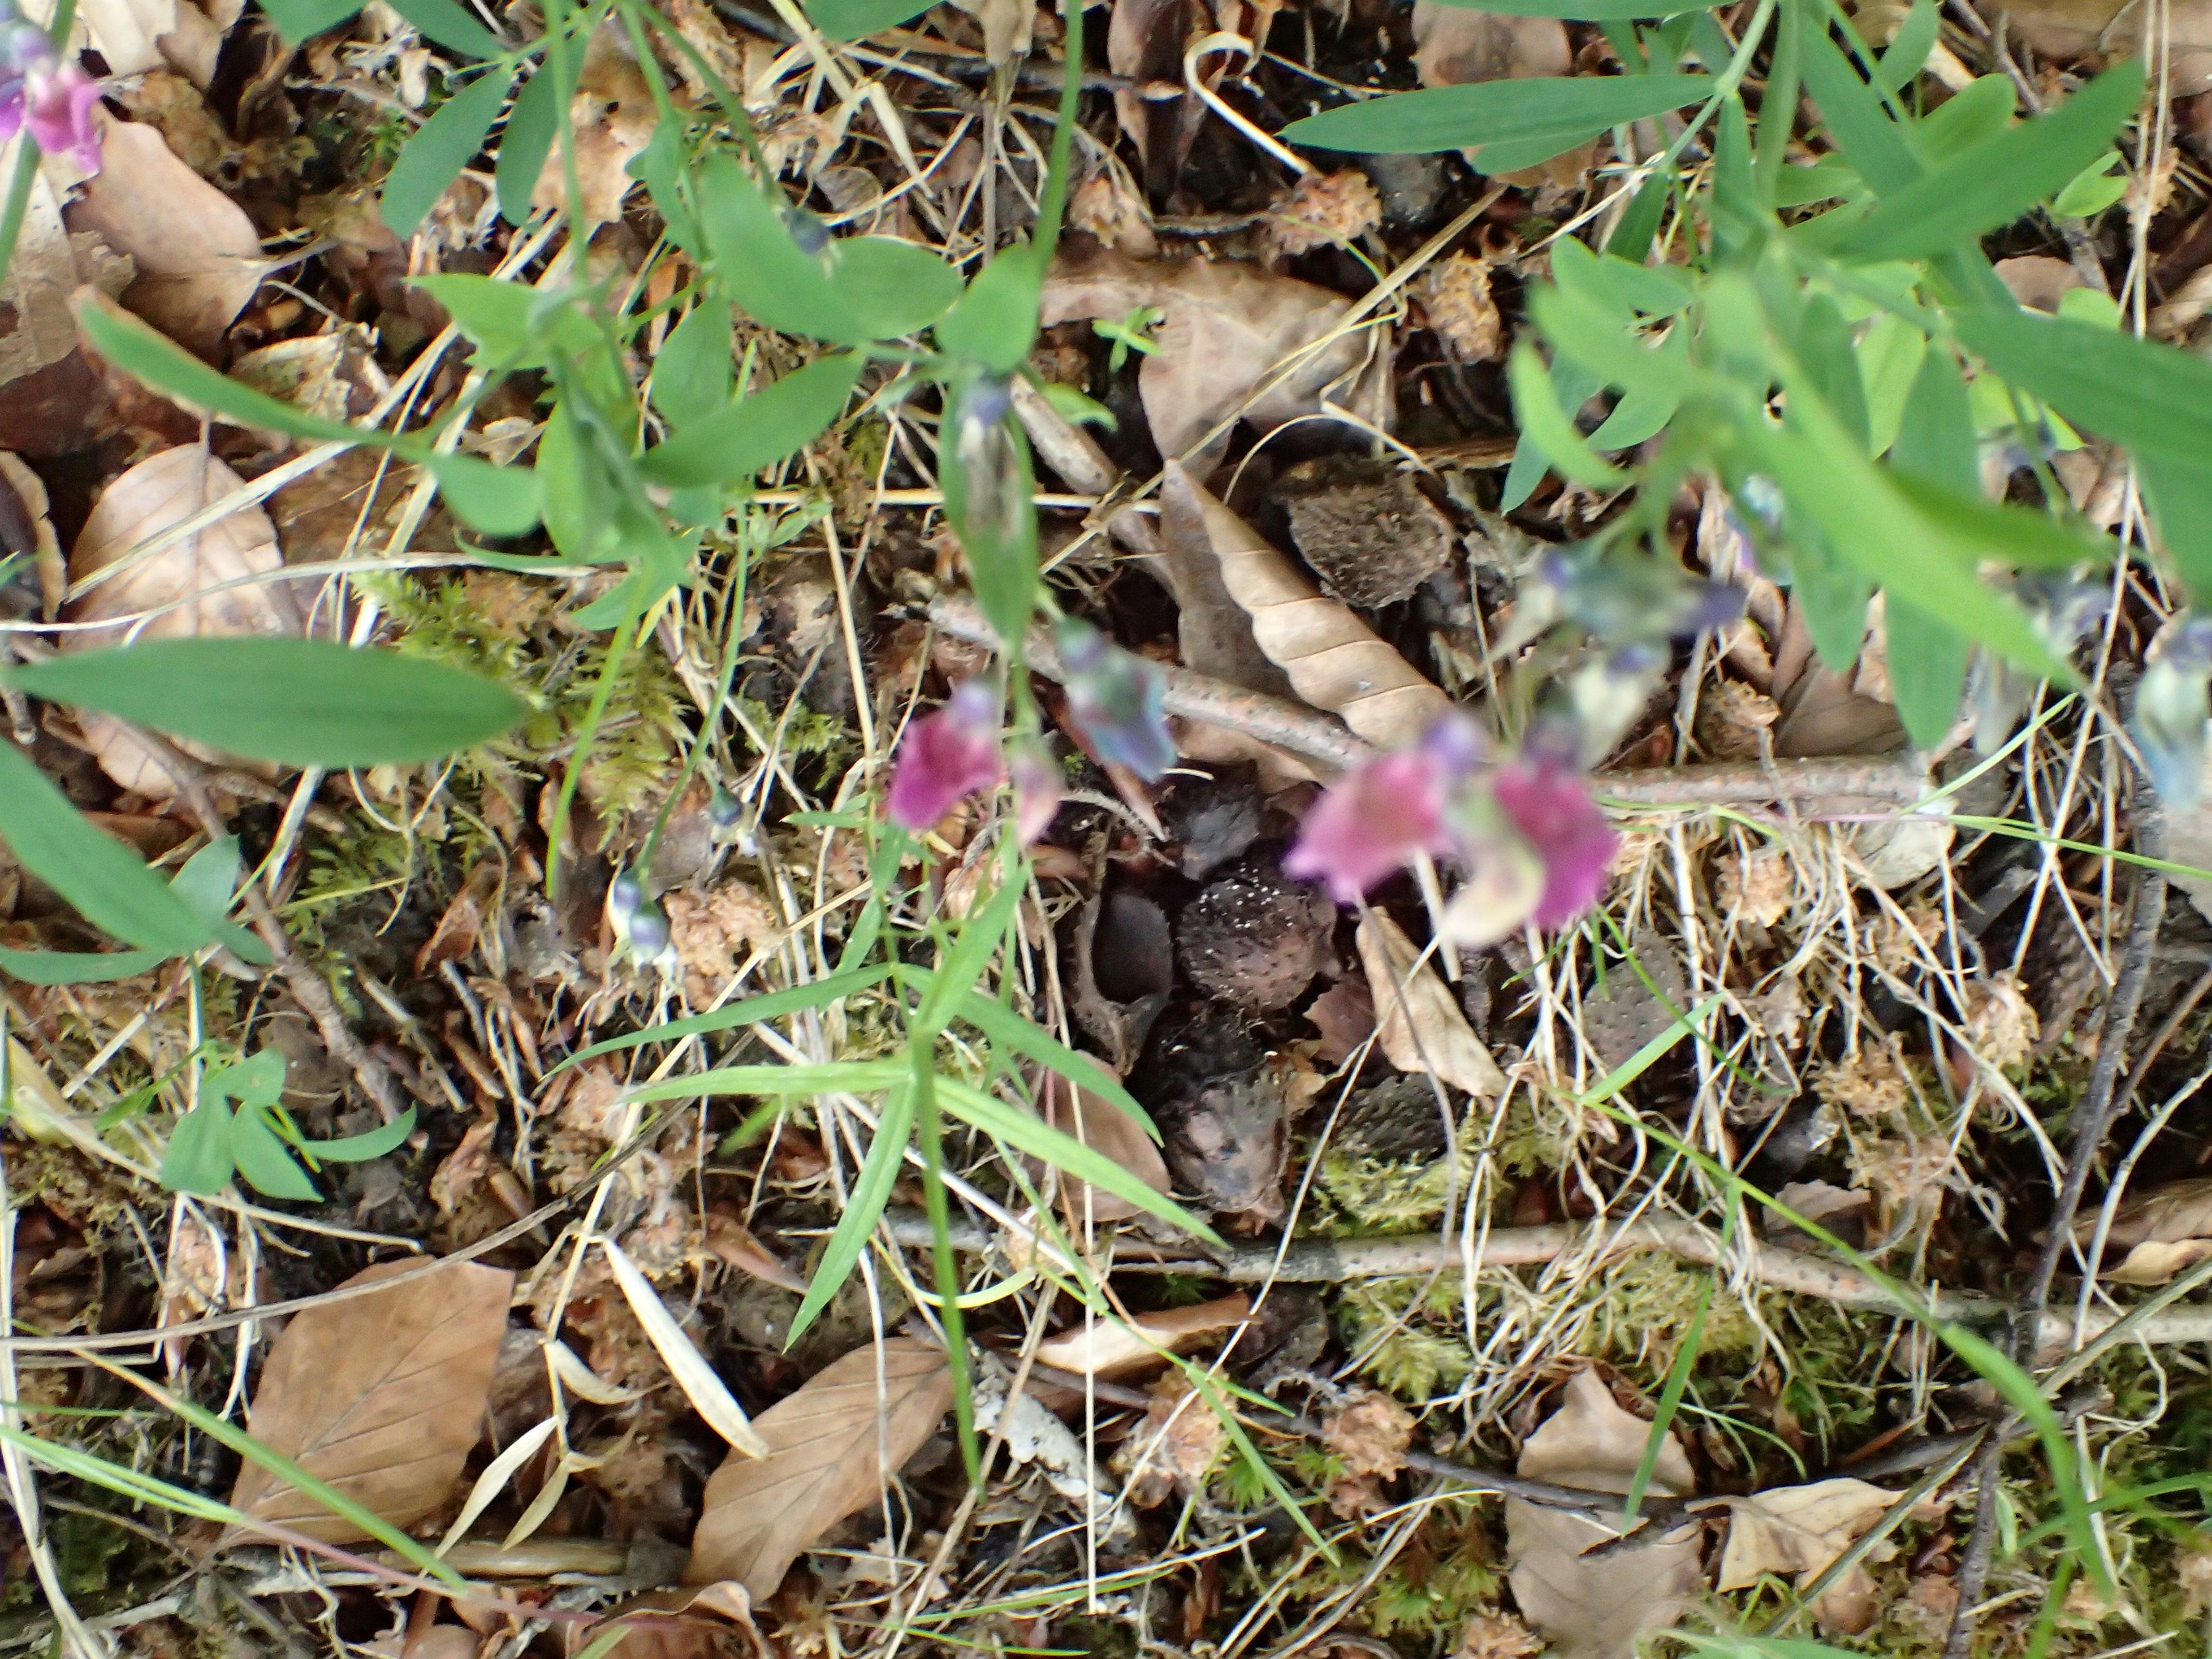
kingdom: Plantae
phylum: Tracheophyta
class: Magnoliopsida
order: Fabales
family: Fabaceae
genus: Lathyrus
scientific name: Lathyrus linifolius
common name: Krat-fladbælg
